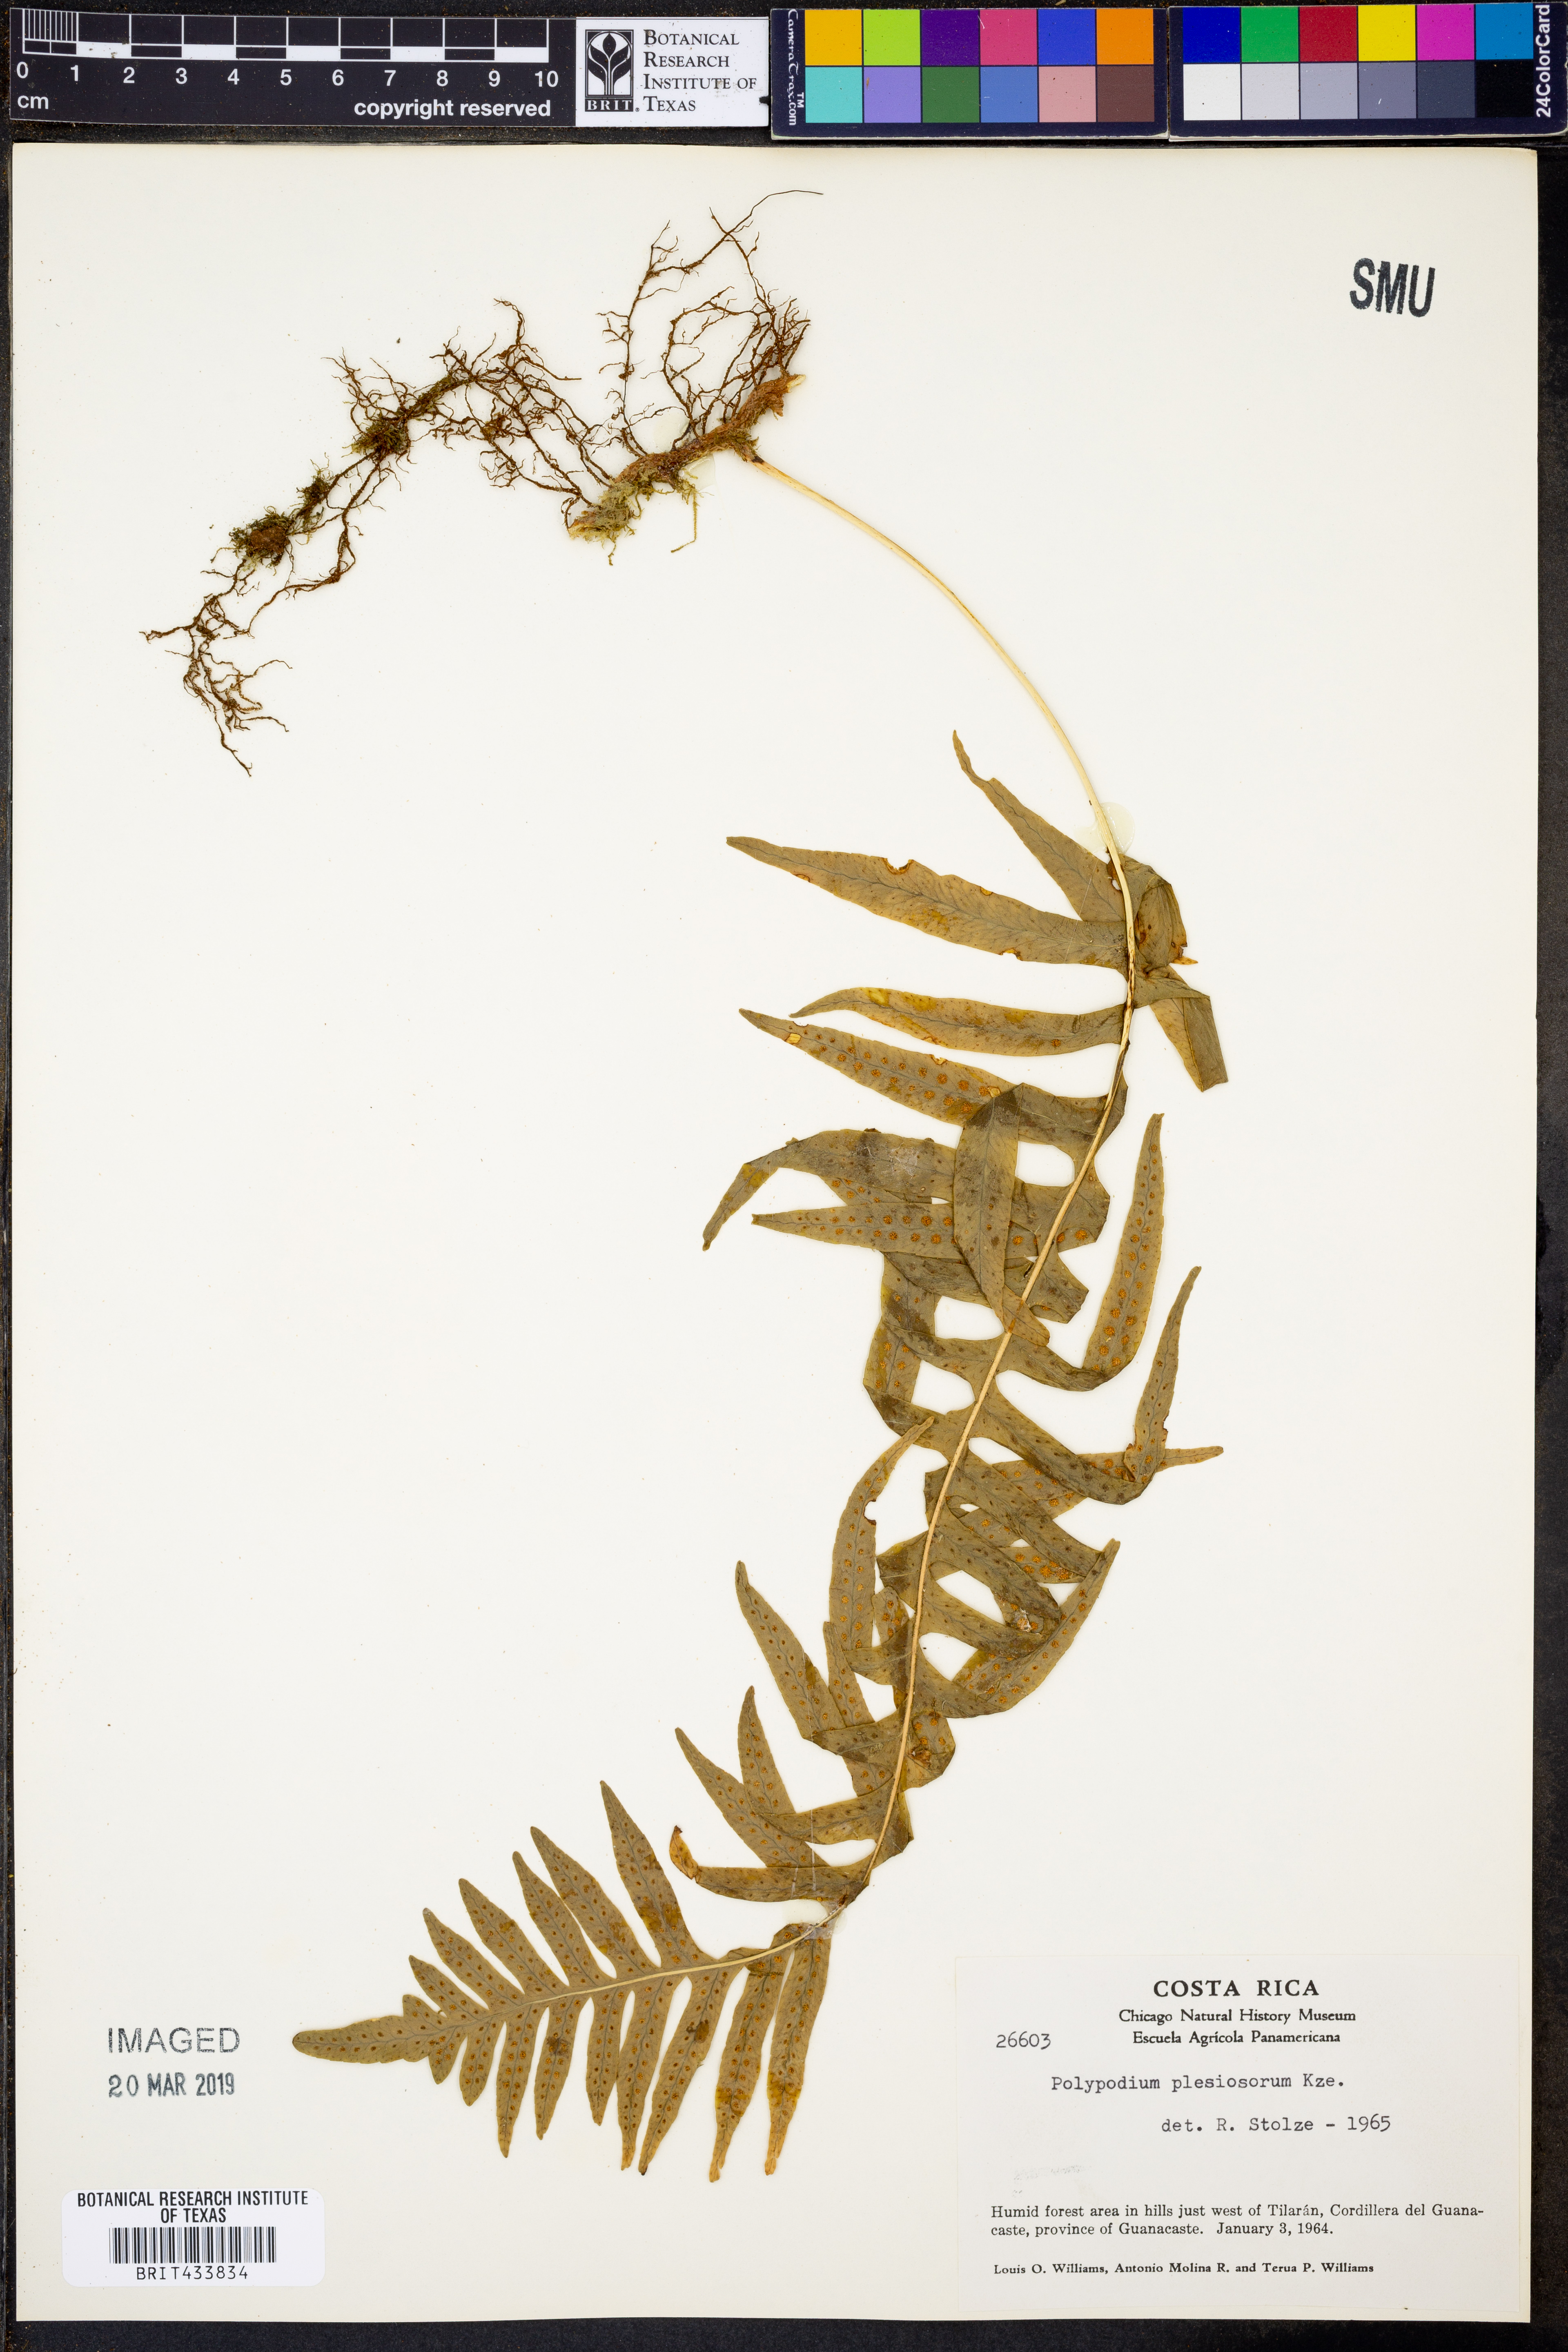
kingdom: Plantae
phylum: Tracheophyta
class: Polypodiopsida
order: Polypodiales
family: Polypodiaceae
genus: Polypodium
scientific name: Polypodium plesiosorum
